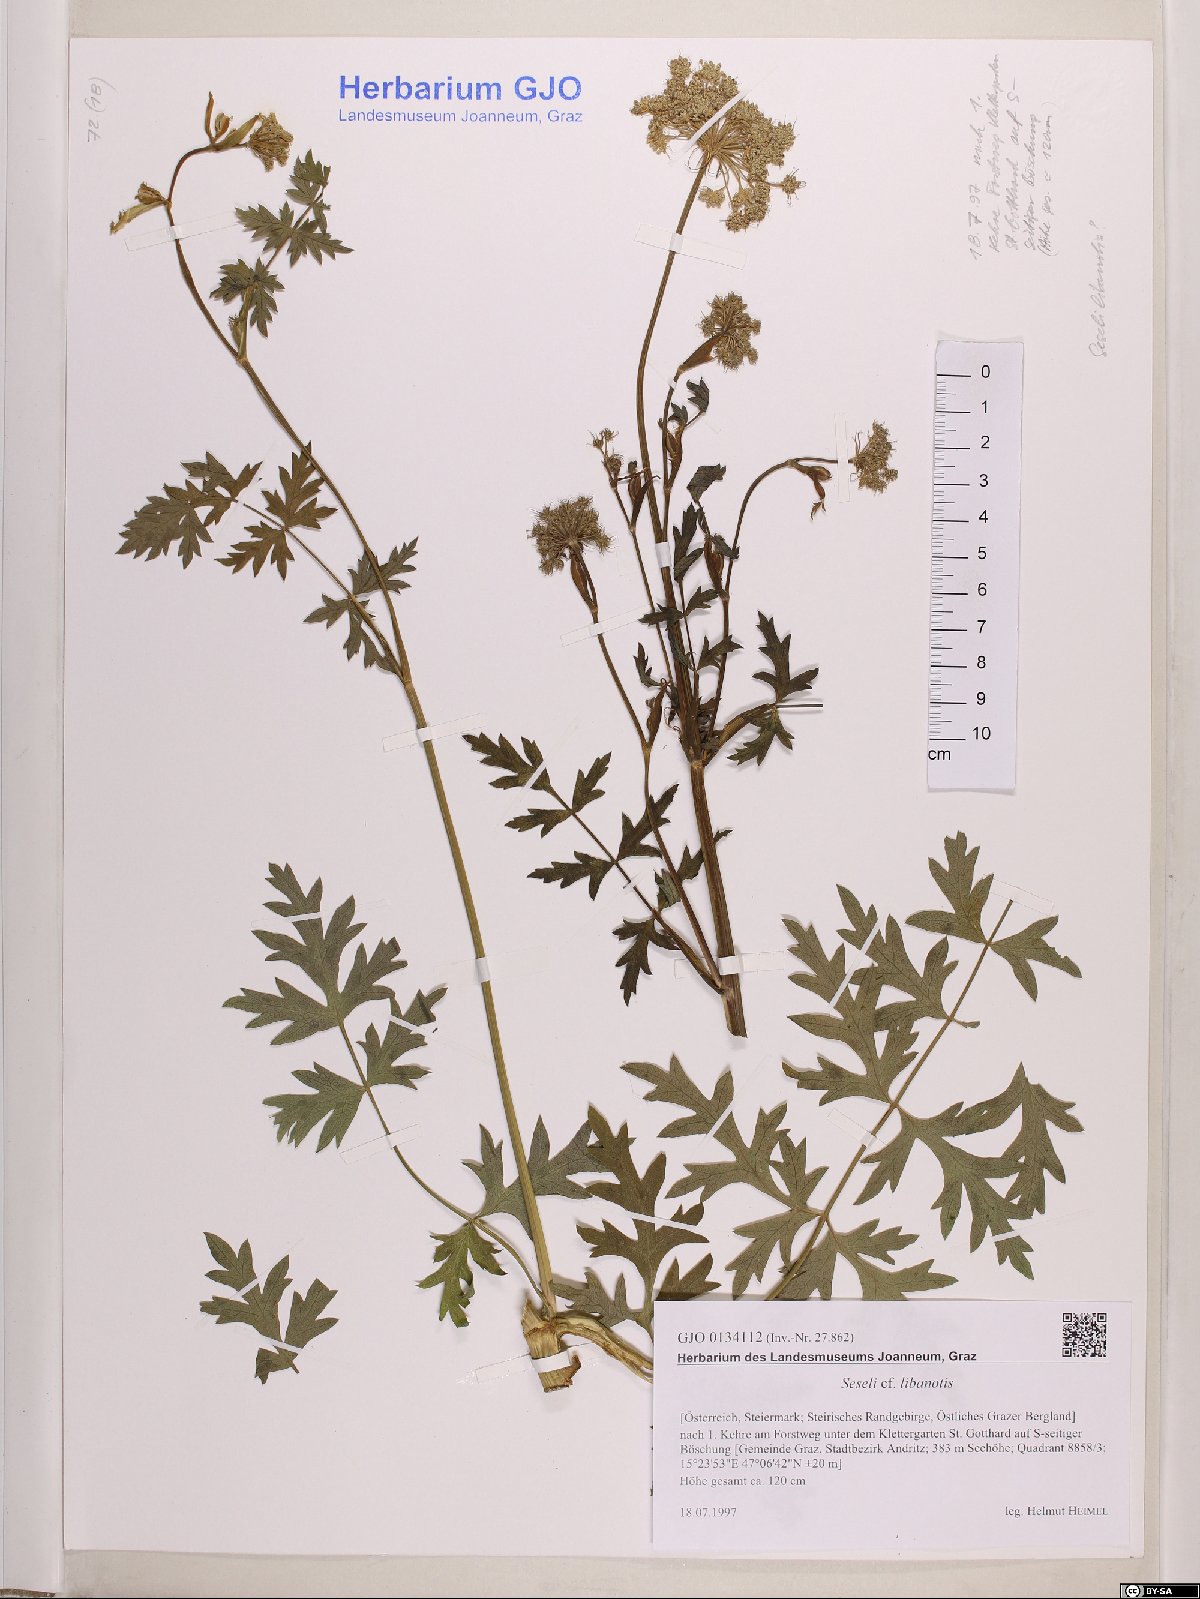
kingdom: Plantae
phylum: Tracheophyta
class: Magnoliopsida
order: Apiales
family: Apiaceae
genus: Seseli
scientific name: Seseli libanotis
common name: Mooncarrot
